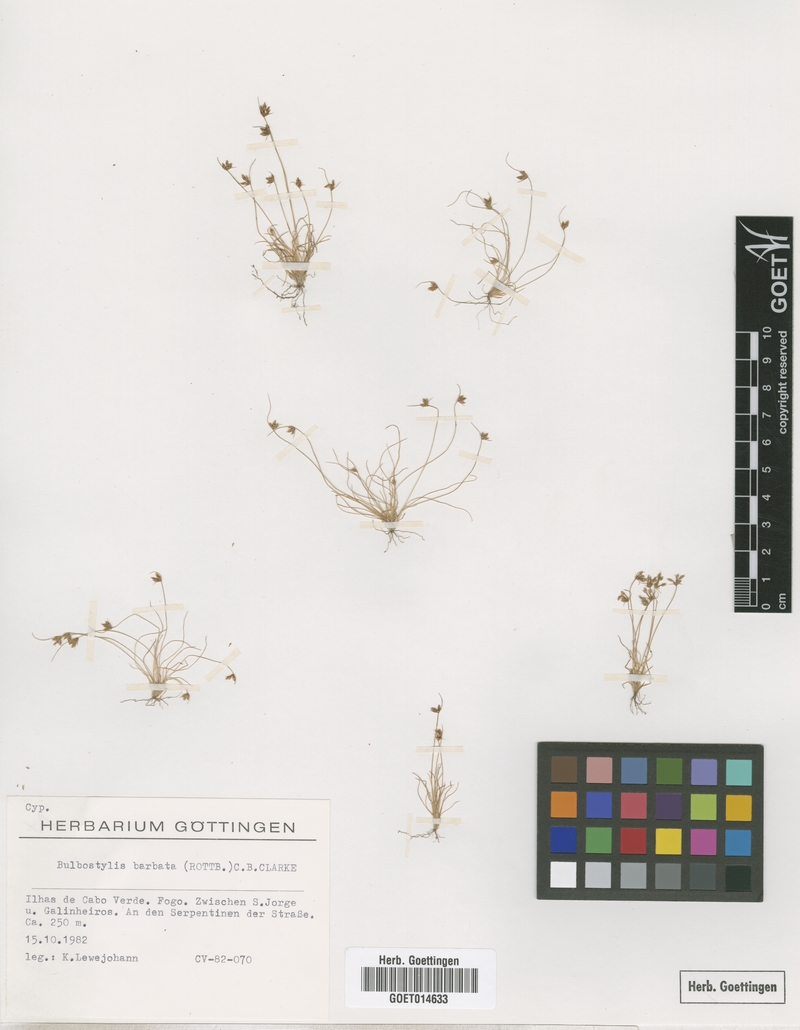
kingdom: Plantae
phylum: Tracheophyta
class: Liliopsida
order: Poales
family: Cyperaceae
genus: Bulbostylis
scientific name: Bulbostylis barbata
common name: Watergrass
